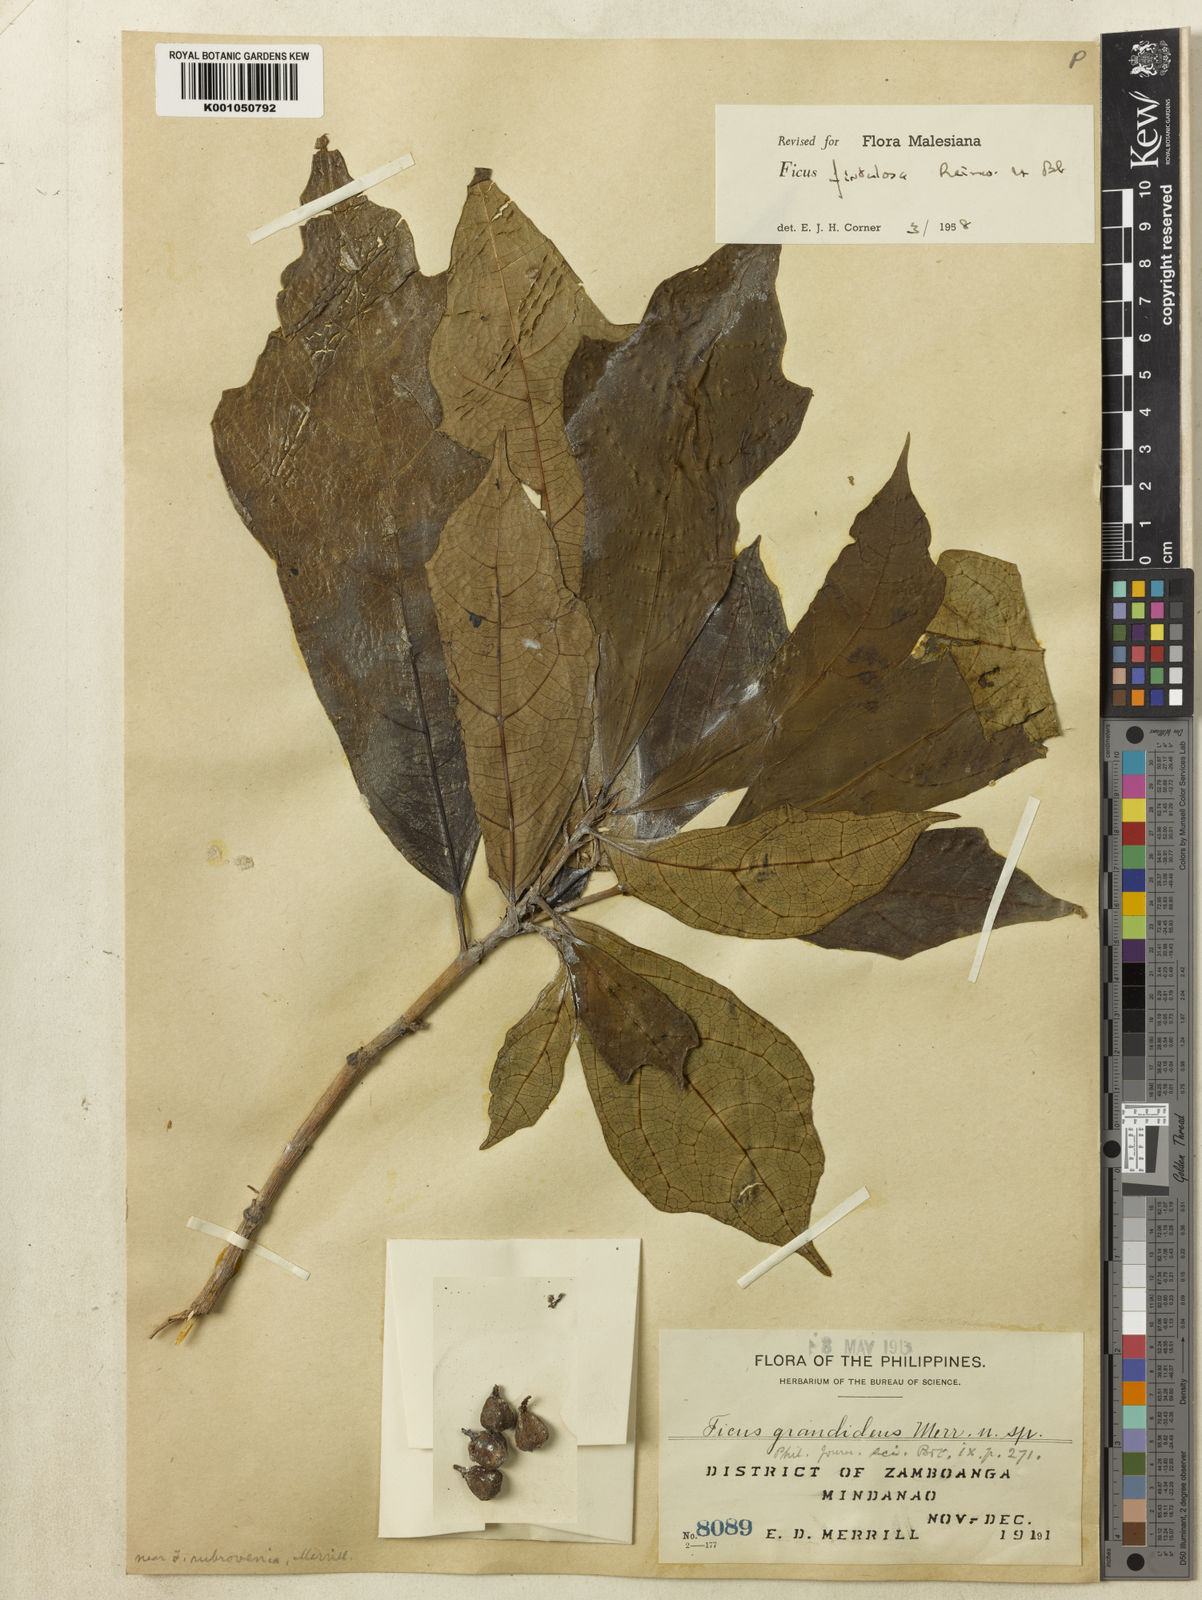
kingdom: Plantae
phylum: Tracheophyta
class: Magnoliopsida
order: Rosales
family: Moraceae
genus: Ficus
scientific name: Ficus fistulosa
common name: Figs
